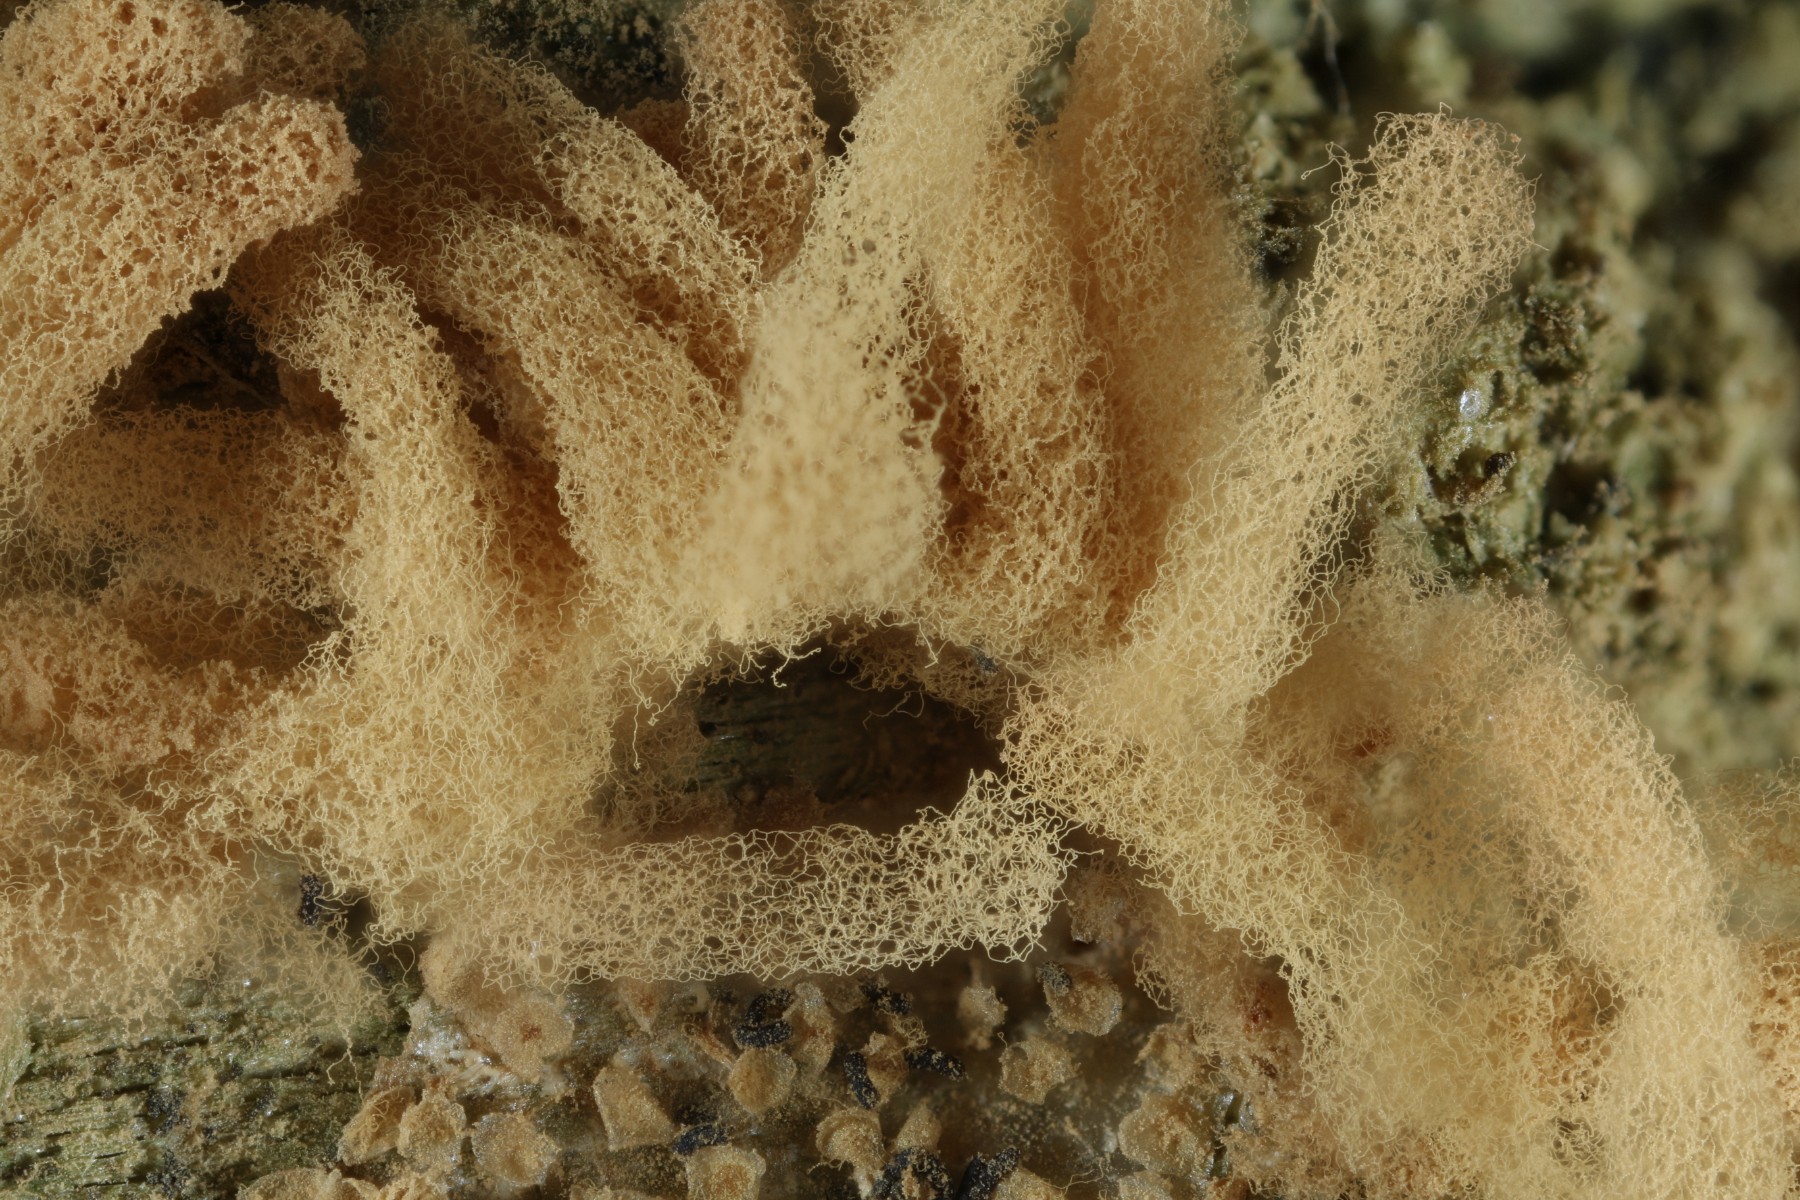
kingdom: Protozoa
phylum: Mycetozoa
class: Myxomycetes
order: Trichiales
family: Arcyriaceae
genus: Arcyria
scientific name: Arcyria obvelata
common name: okkergul skålsvøb
